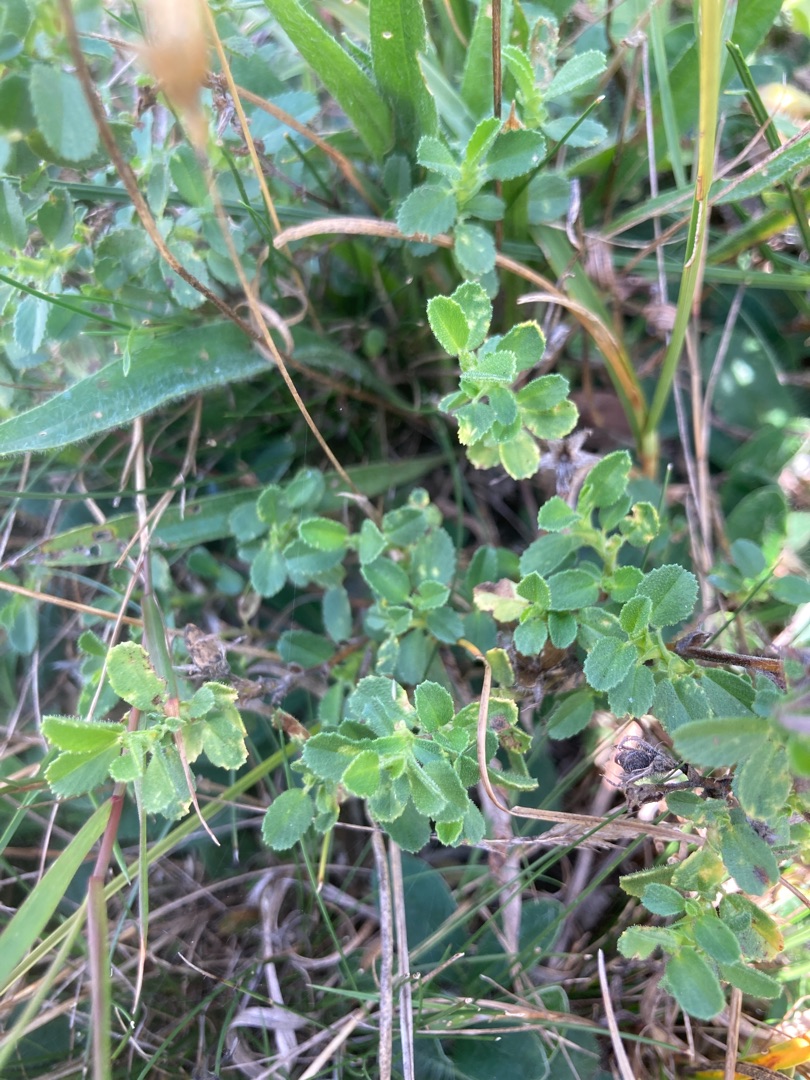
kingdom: Plantae
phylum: Tracheophyta
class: Magnoliopsida
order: Fabales
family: Fabaceae
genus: Ononis
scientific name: Ononis spinosa
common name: Krageklo
